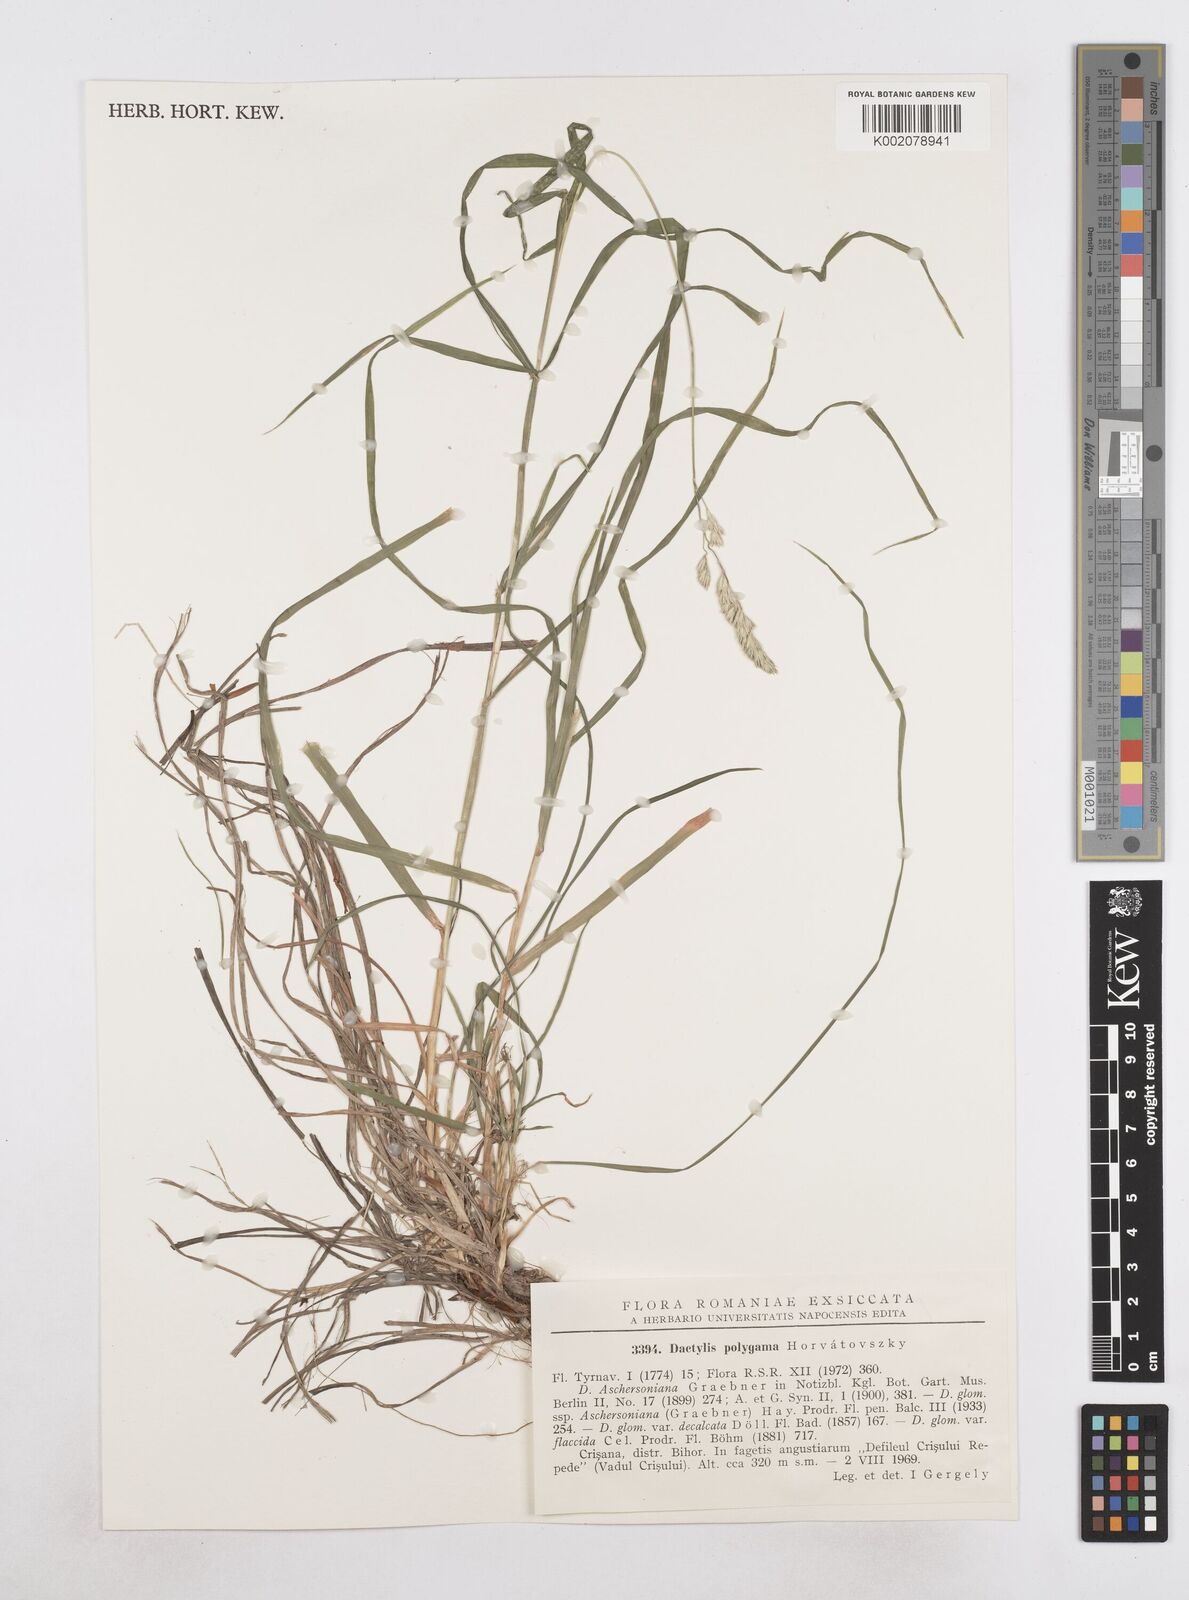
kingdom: Plantae
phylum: Tracheophyta
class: Liliopsida
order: Poales
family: Poaceae
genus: Dactylis
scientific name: Dactylis glomerata
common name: Orchardgrass
